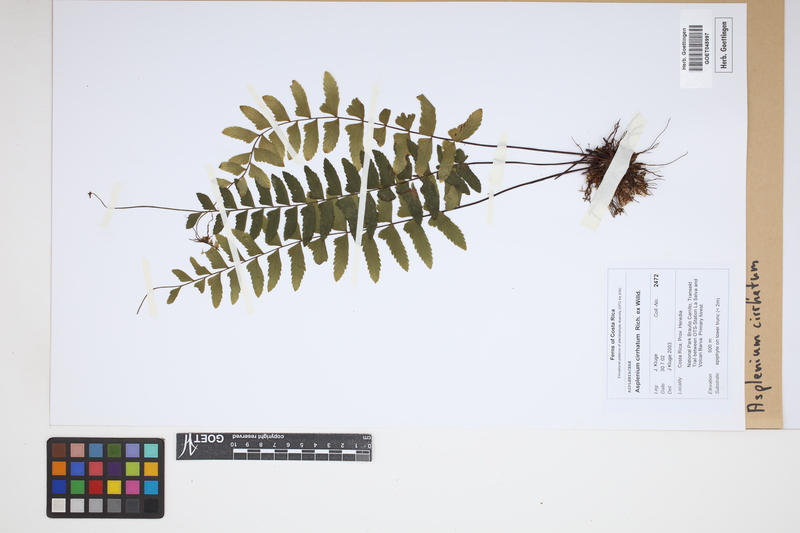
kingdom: Plantae
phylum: Tracheophyta
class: Polypodiopsida
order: Polypodiales
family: Aspleniaceae
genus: Asplenium
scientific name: Asplenium cirrhatum
